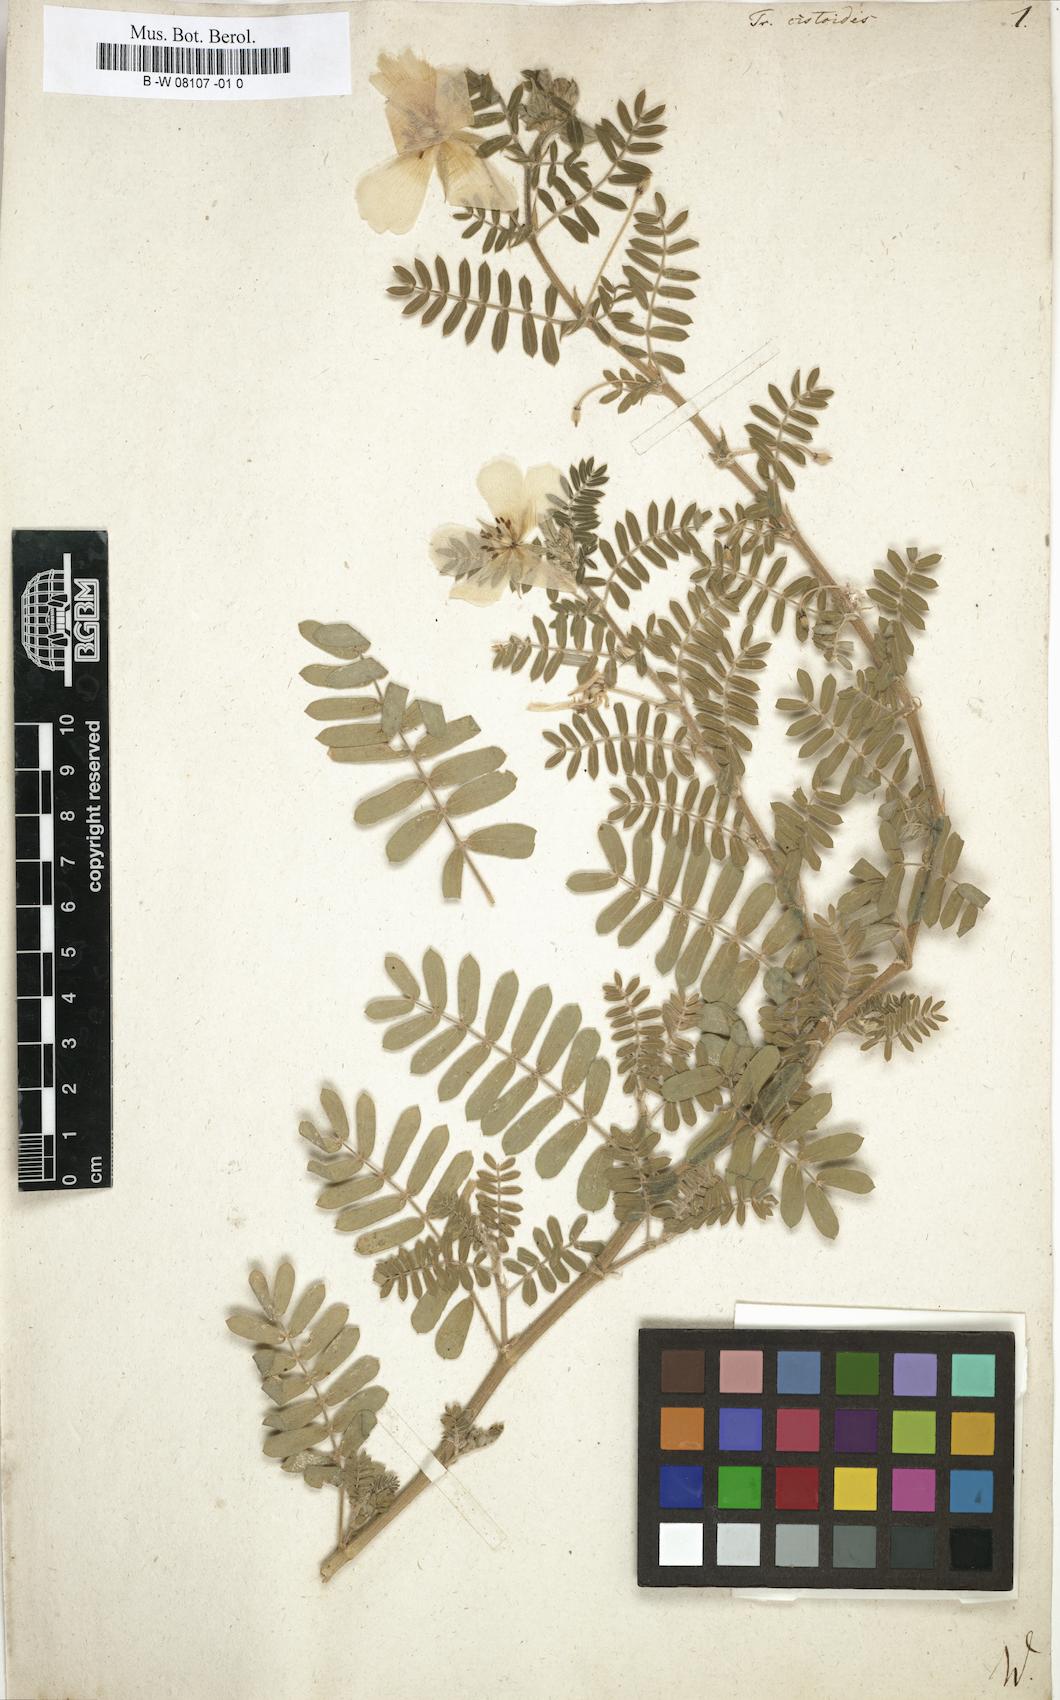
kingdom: Plantae
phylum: Tracheophyta
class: Magnoliopsida
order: Zygophyllales
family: Zygophyllaceae
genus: Tribulus
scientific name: Tribulus cistoides
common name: Jamaican feverplant
